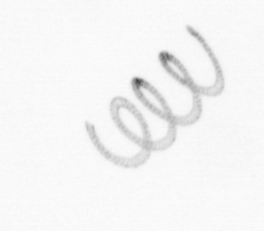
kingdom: Chromista
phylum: Ochrophyta
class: Bacillariophyceae
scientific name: Bacillariophyceae
